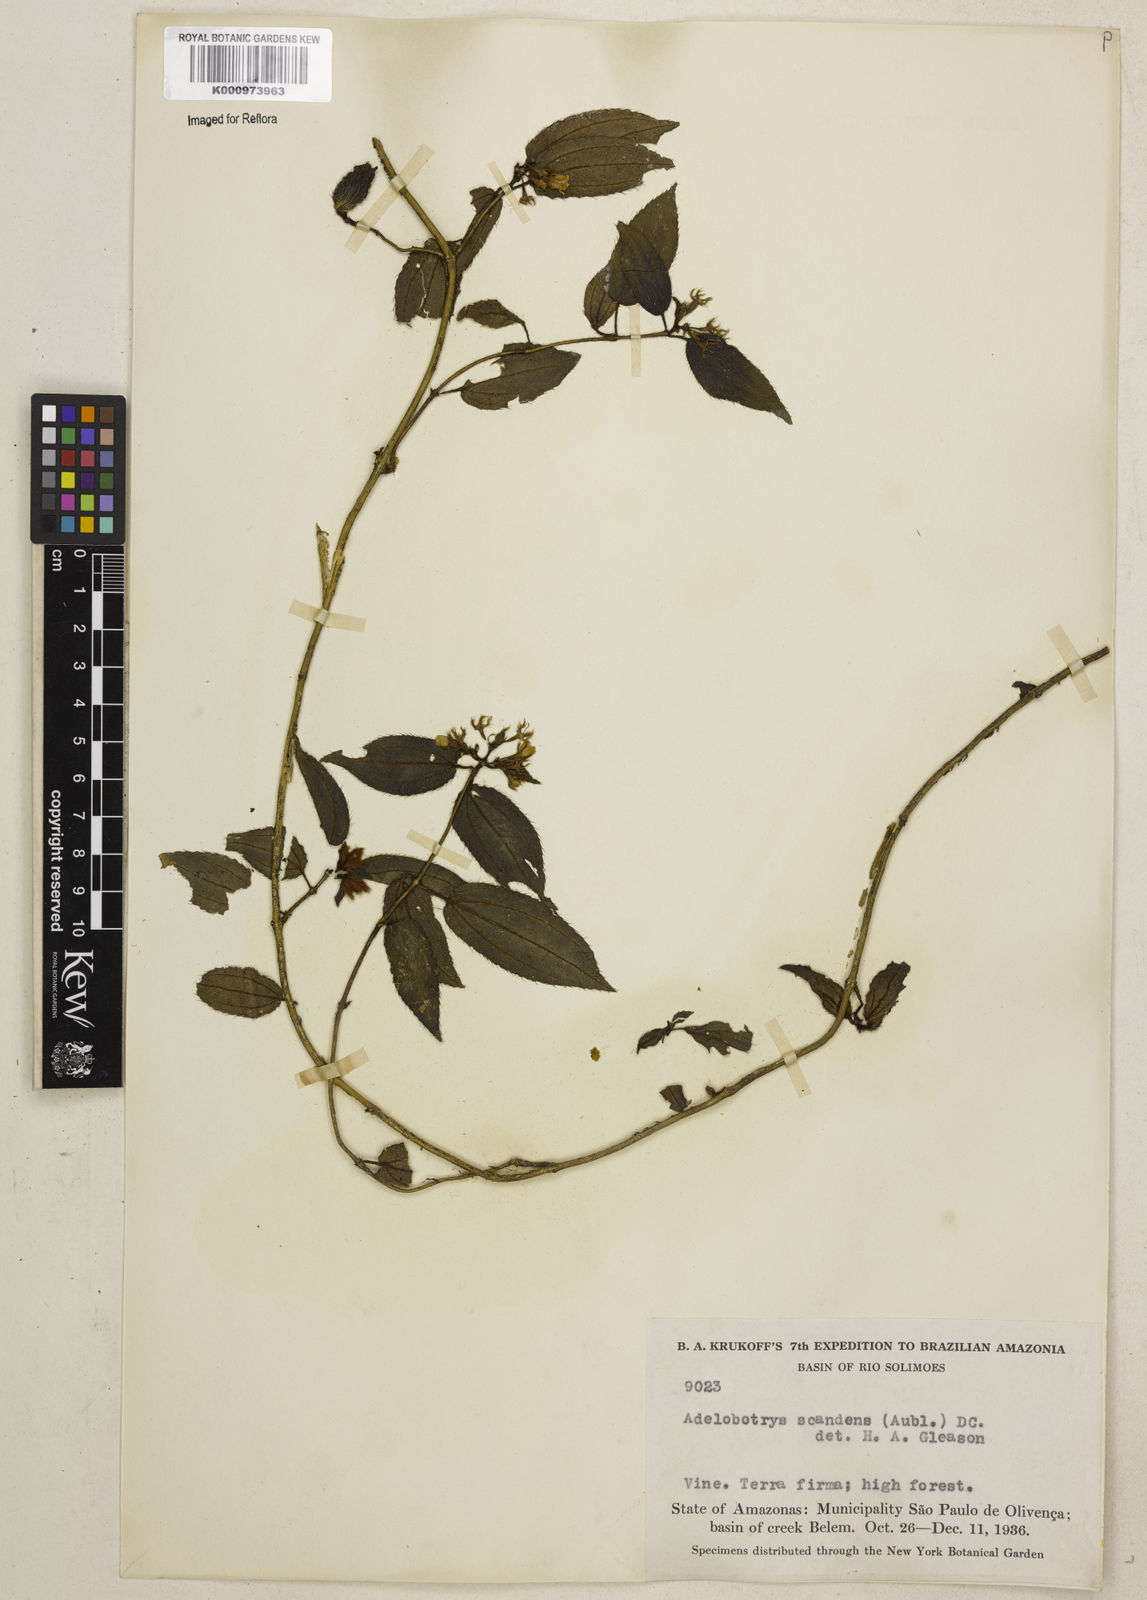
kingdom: Plantae
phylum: Tracheophyta
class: Magnoliopsida
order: Myrtales
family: Melastomataceae
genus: Adelobotrys
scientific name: Adelobotrys scandens
